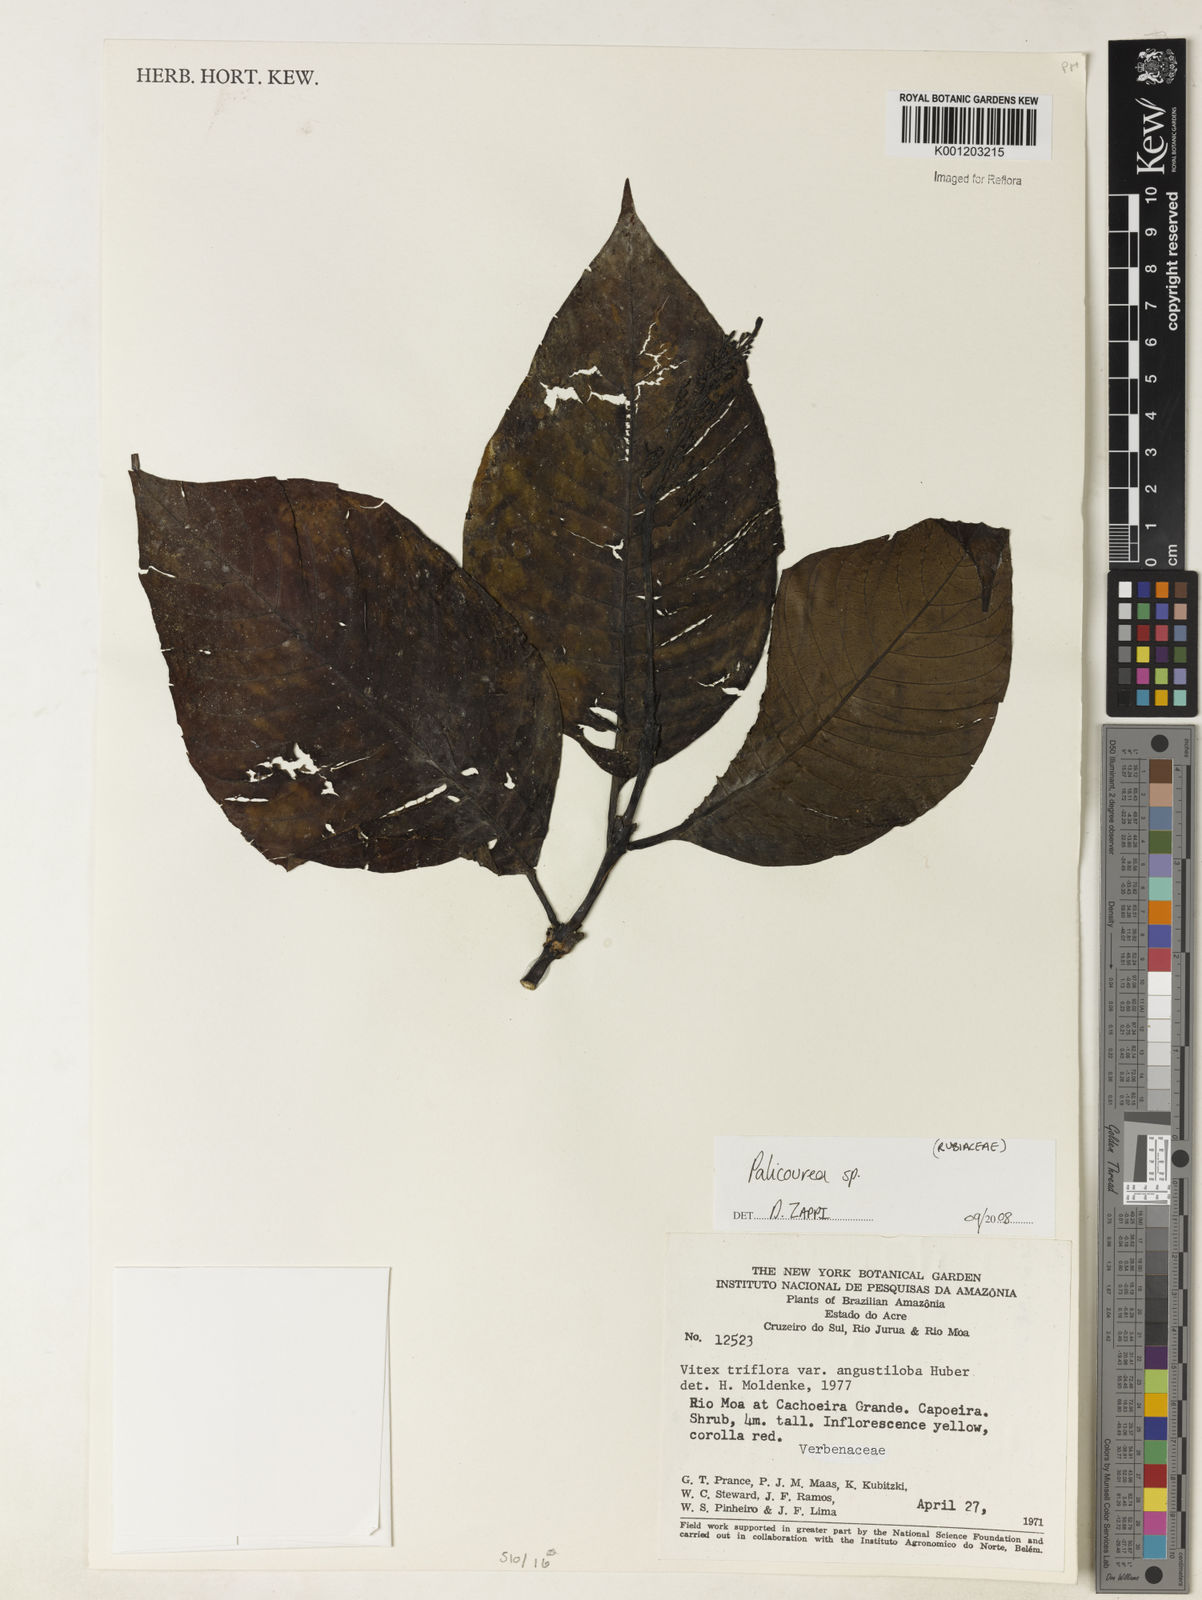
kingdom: Plantae
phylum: Tracheophyta
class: Magnoliopsida
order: Gentianales
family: Rubiaceae
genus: Palicourea
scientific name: Palicourea
